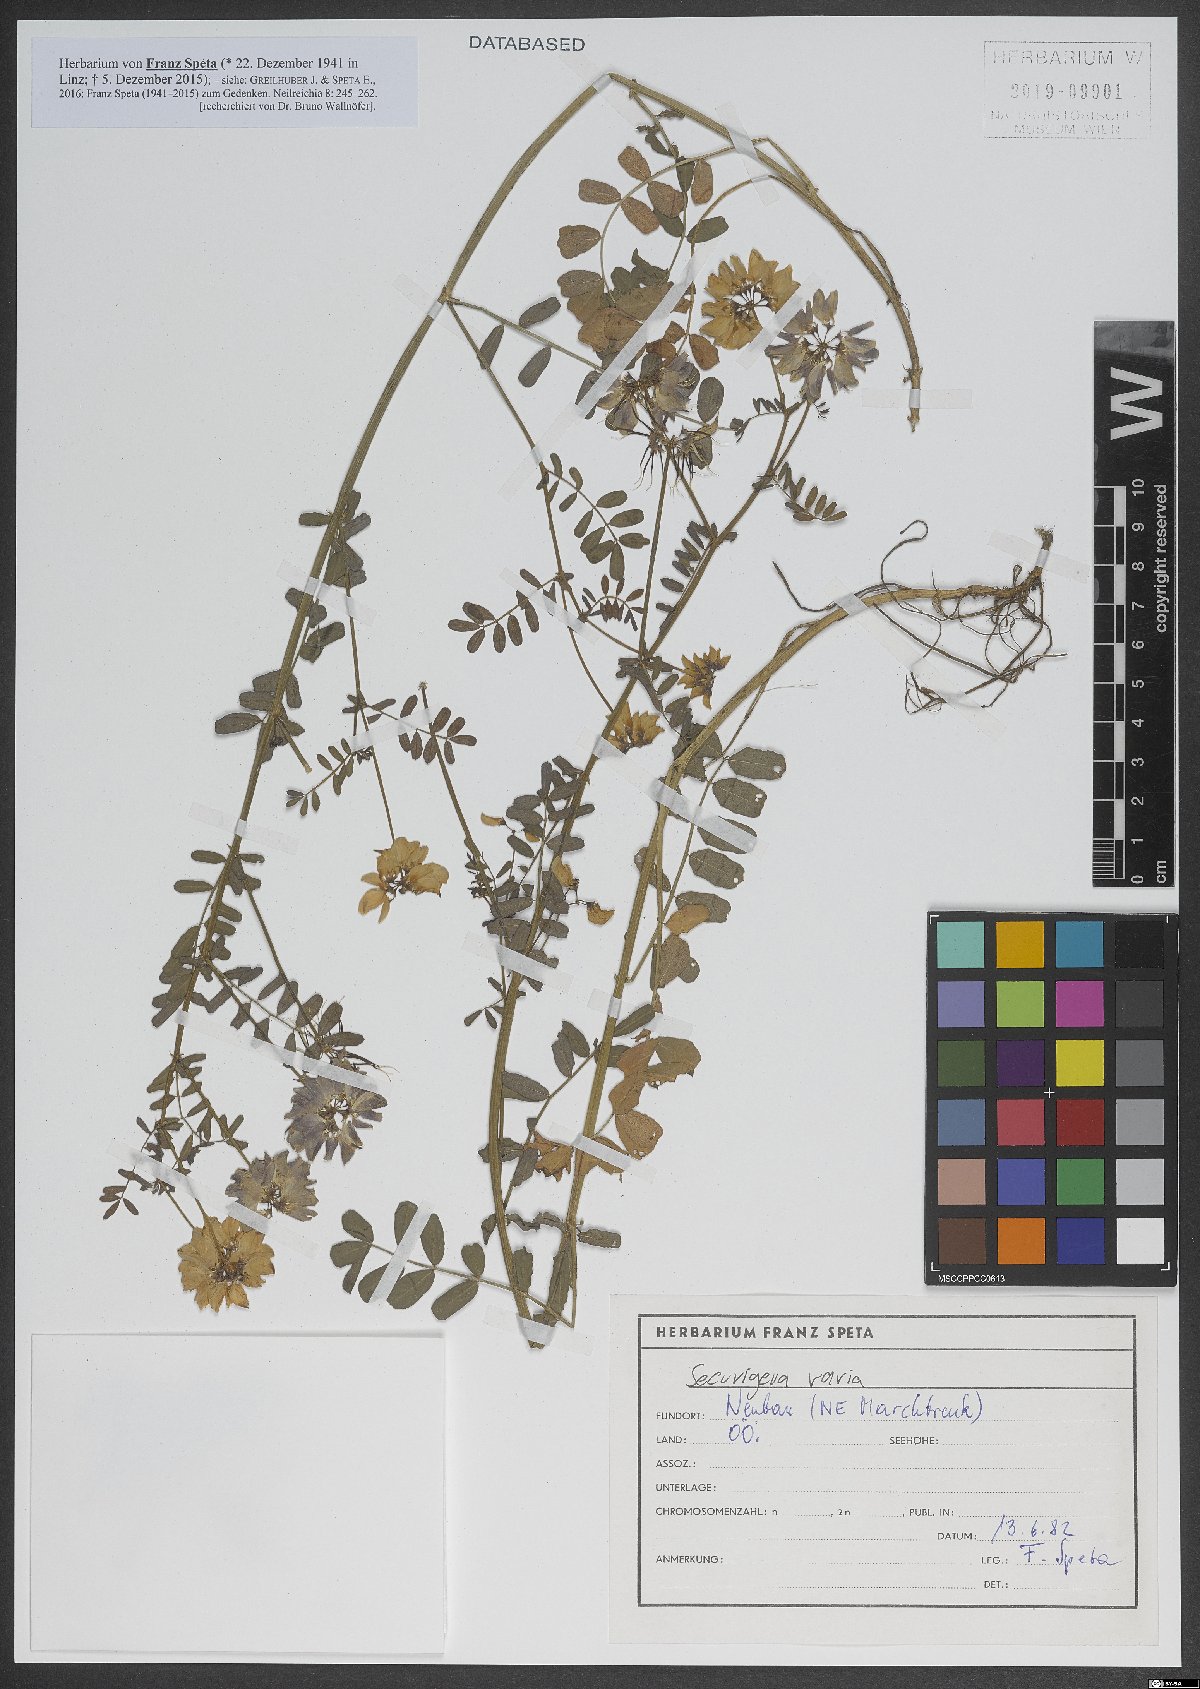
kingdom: Plantae
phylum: Tracheophyta
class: Magnoliopsida
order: Fabales
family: Fabaceae
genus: Coronilla
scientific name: Coronilla varia
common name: Crownvetch
